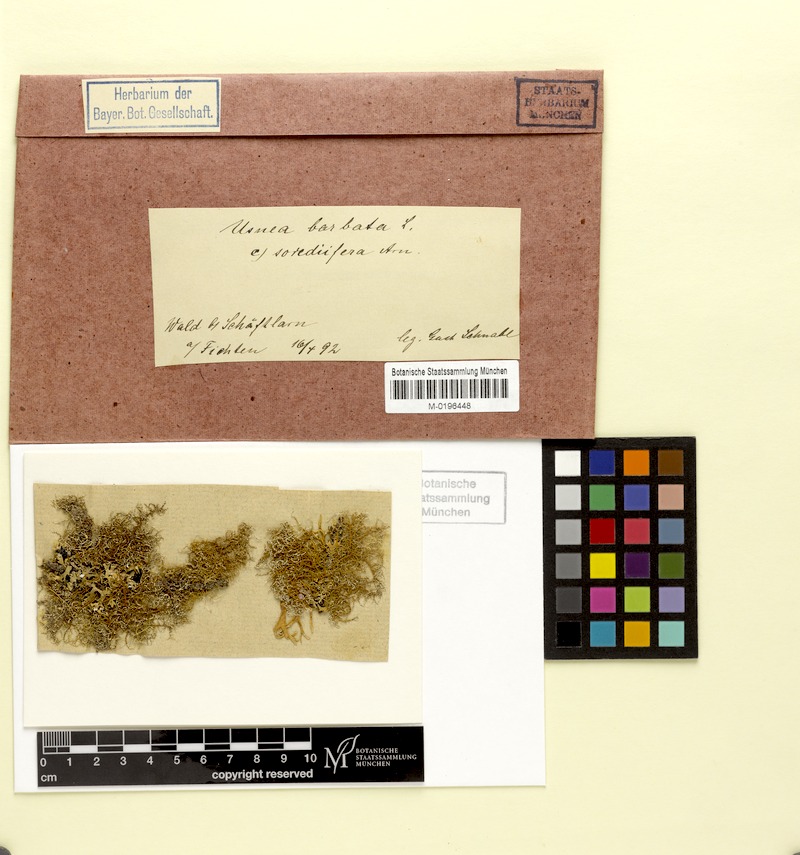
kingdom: Fungi
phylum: Ascomycota
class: Lecanoromycetes
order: Lecanorales
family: Parmeliaceae
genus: Usnea
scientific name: Usnea barbata
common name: Old man's beard lichen
